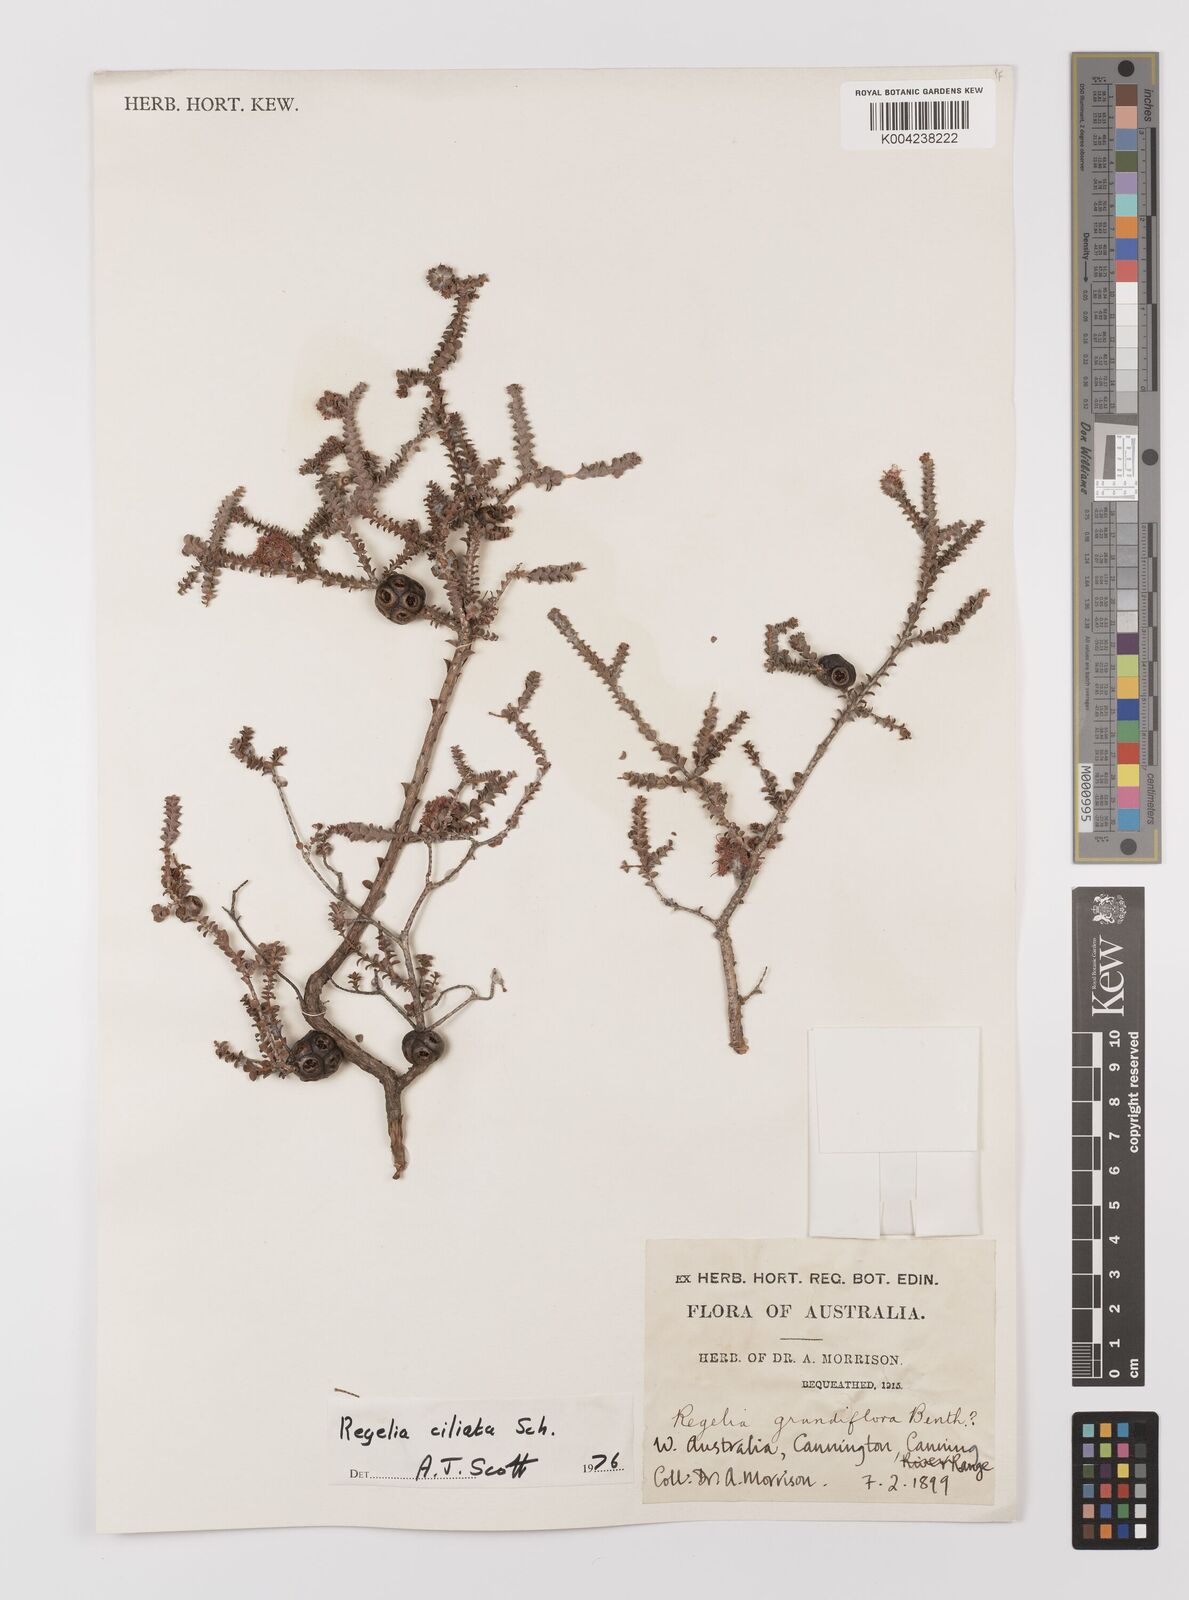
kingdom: Plantae
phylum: Tracheophyta
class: Magnoliopsida
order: Myrtales
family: Myrtaceae
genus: Melaleuca
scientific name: Melaleuca crossota
